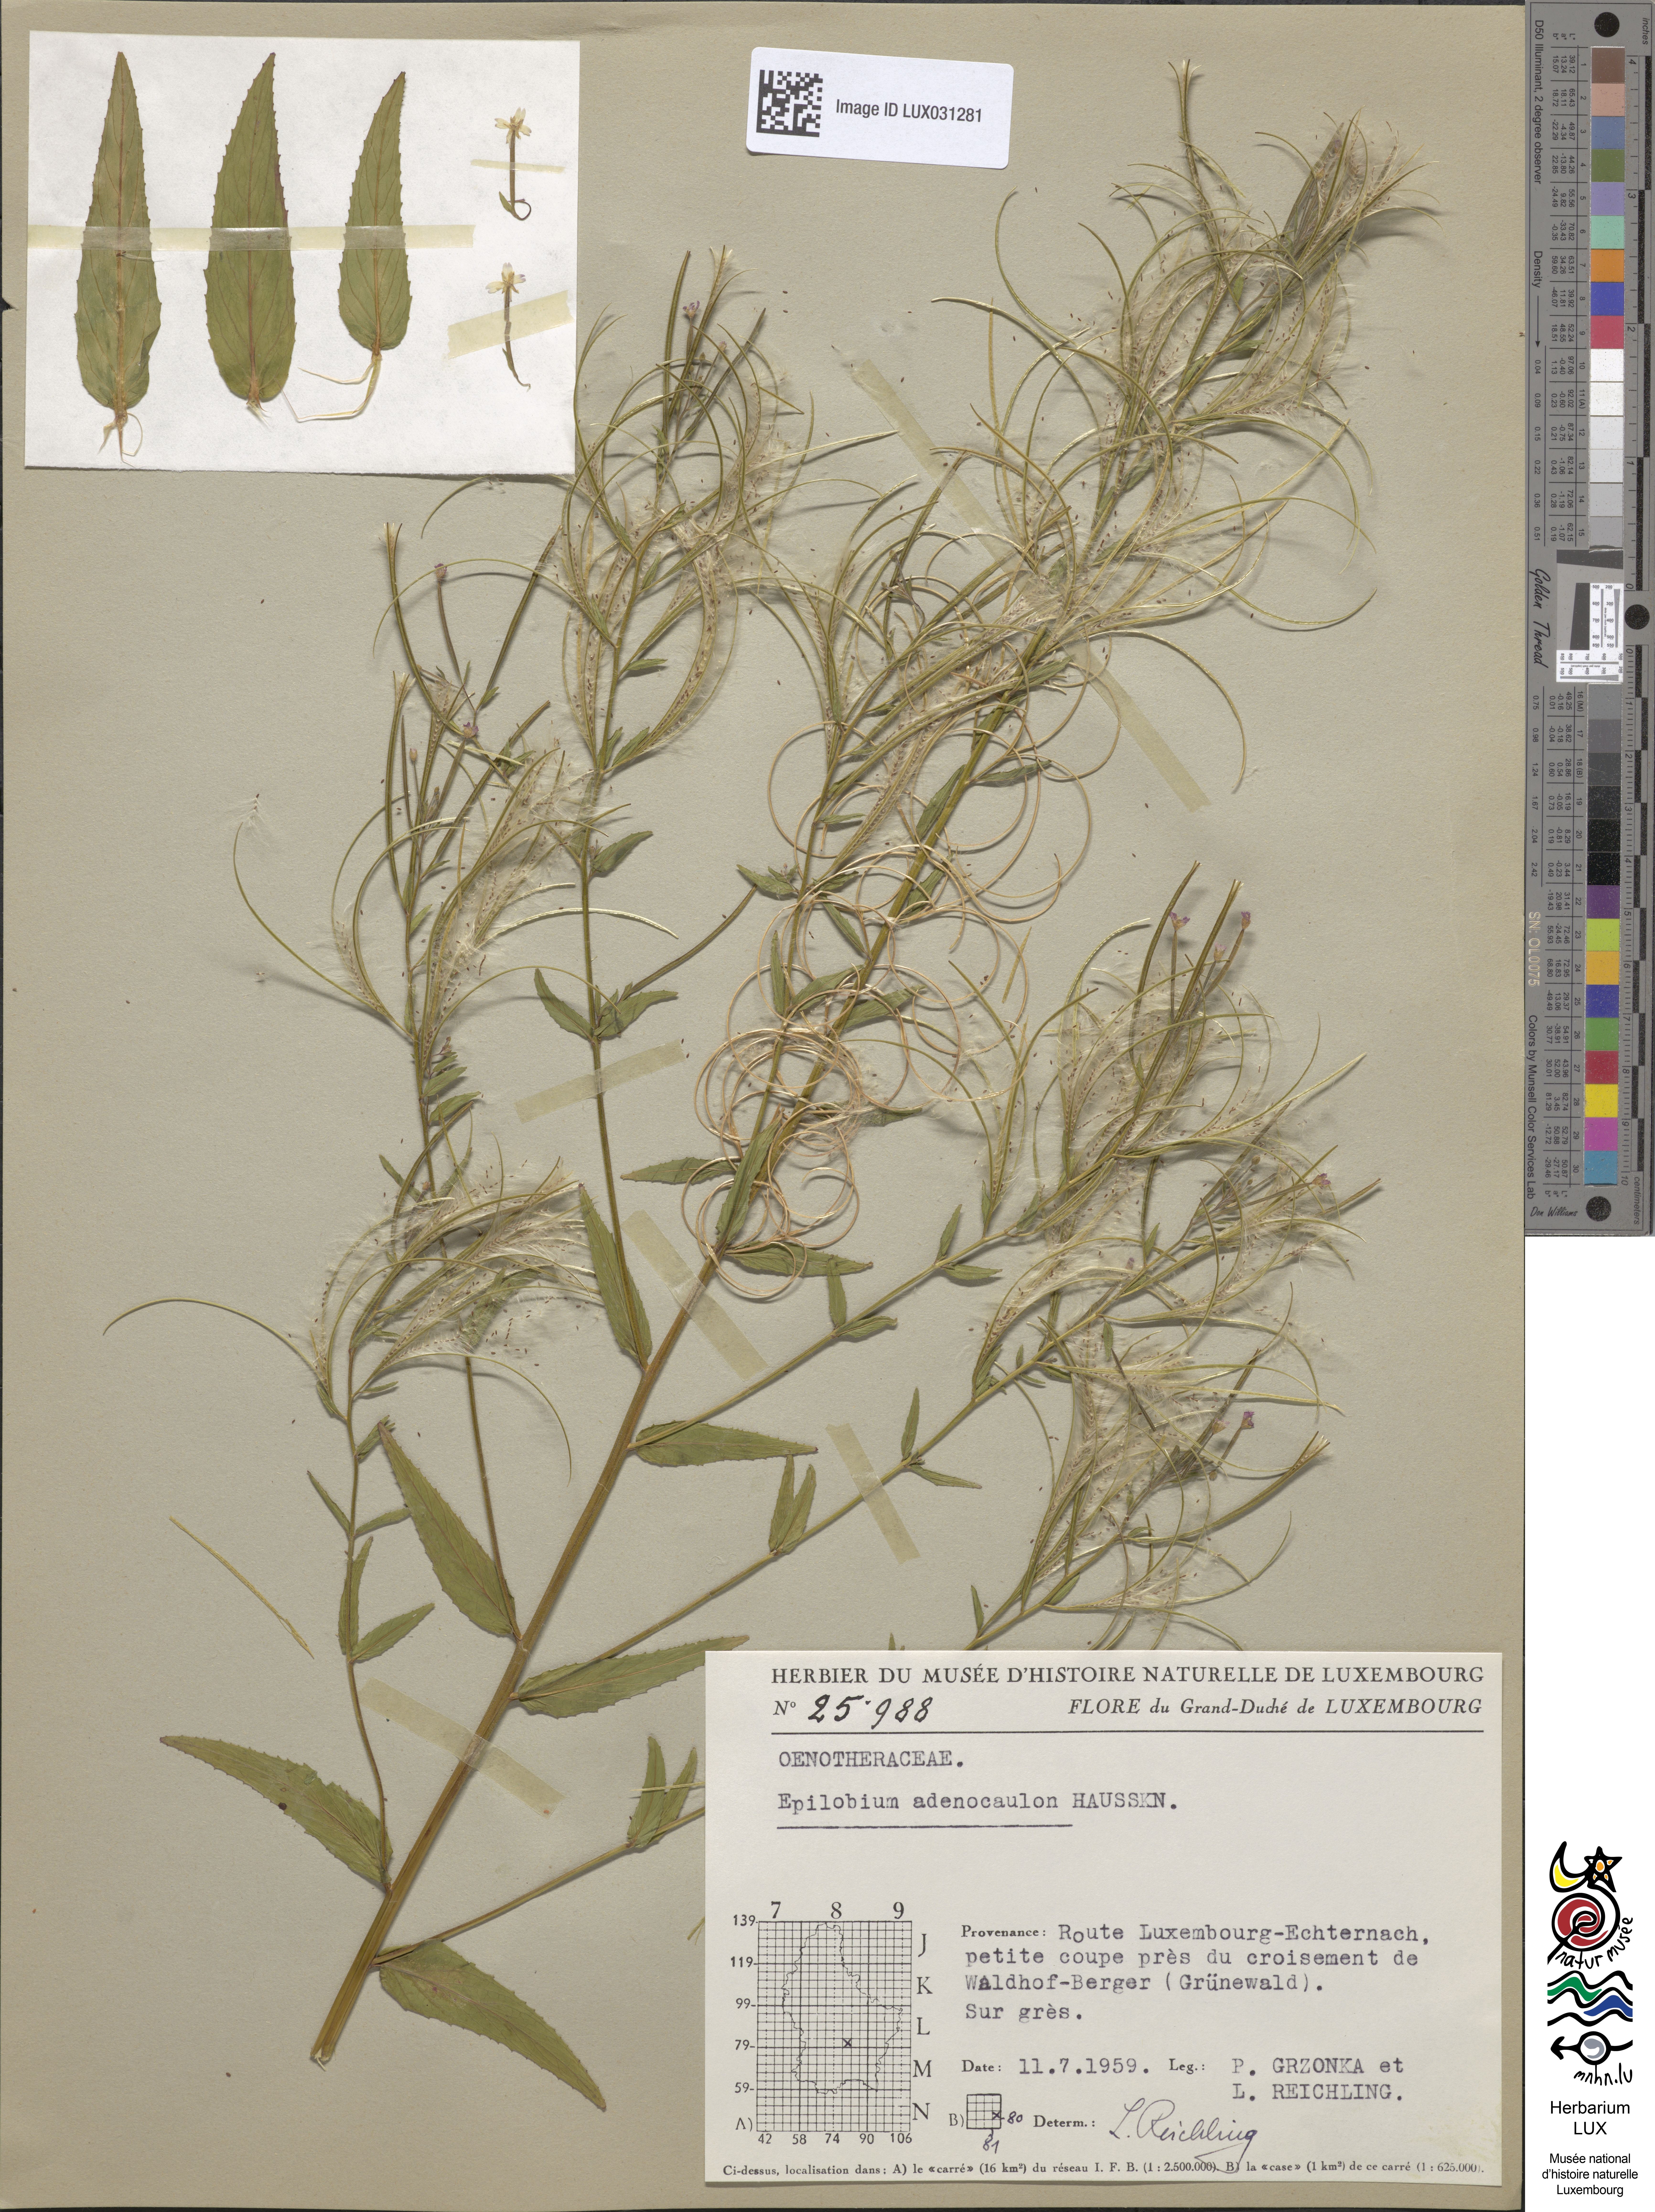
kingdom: Plantae
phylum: Tracheophyta
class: Magnoliopsida
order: Myrtales
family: Onagraceae
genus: Epilobium
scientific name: Epilobium ciliatum
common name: American willowherb
